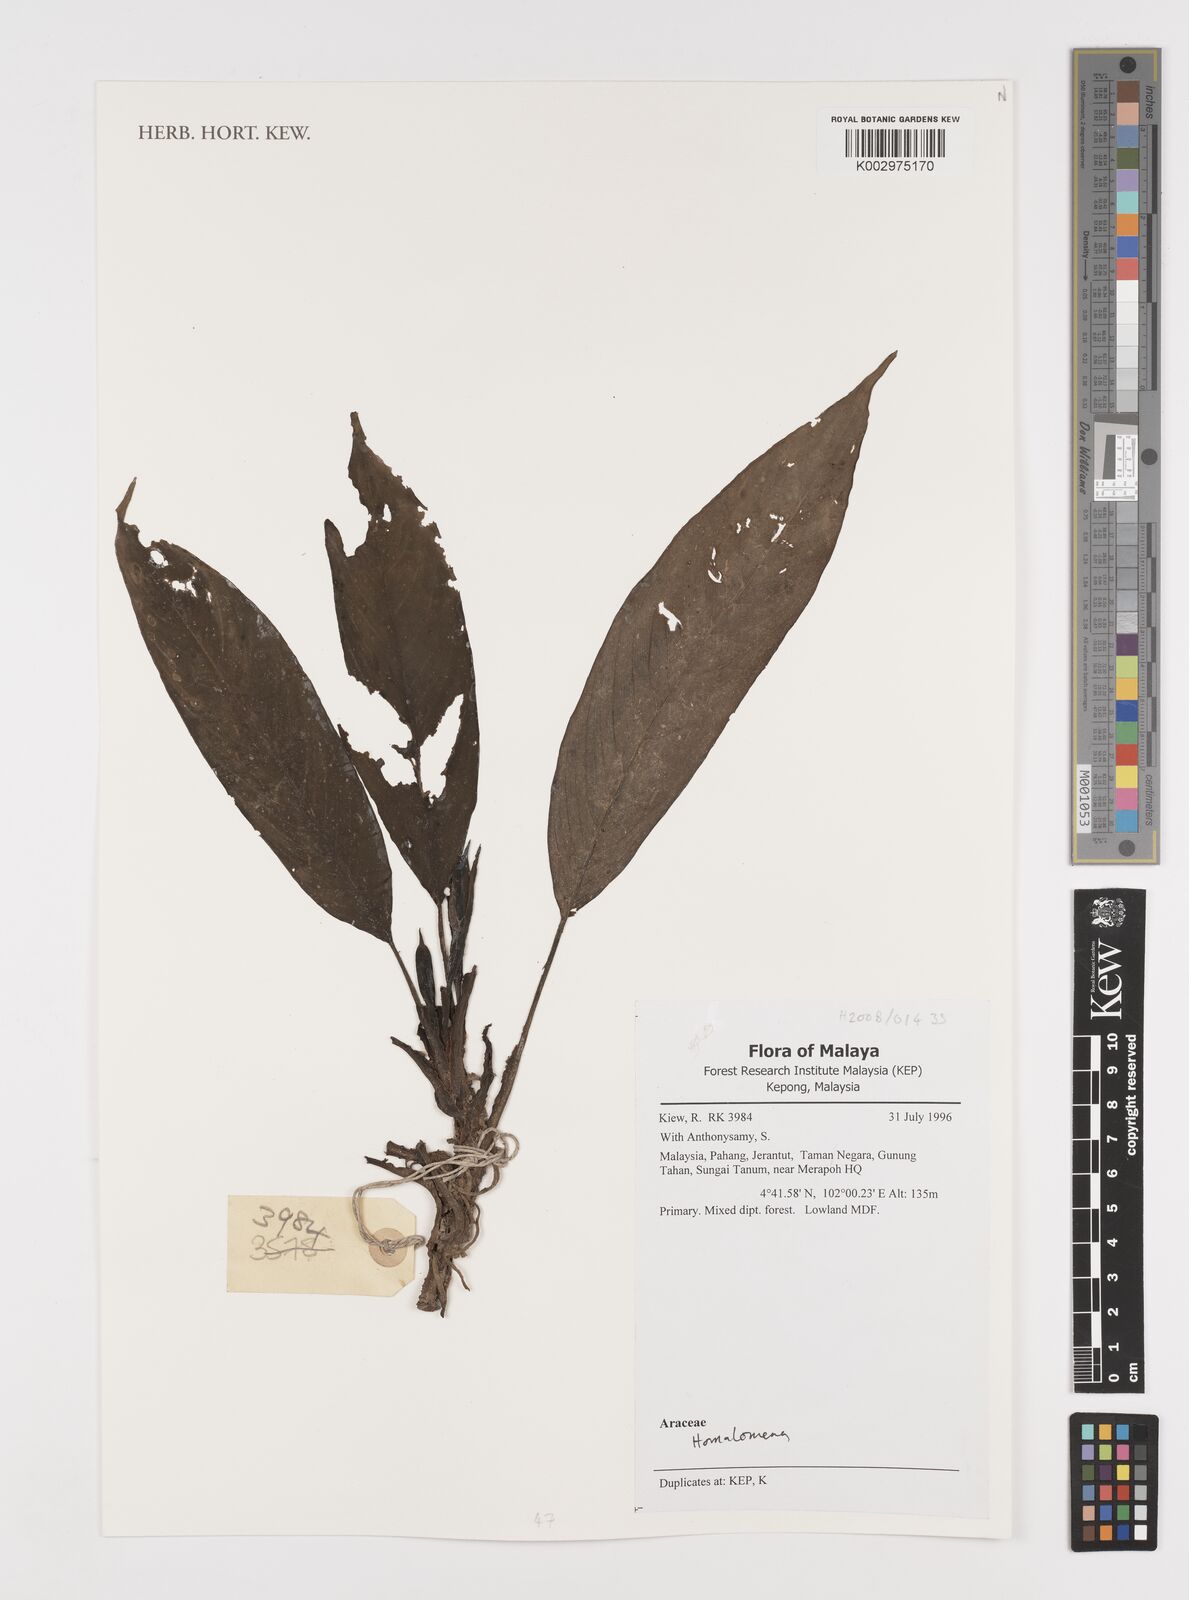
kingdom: Plantae
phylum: Tracheophyta
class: Liliopsida
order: Alismatales
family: Araceae
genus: Homalomena
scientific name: Homalomena
